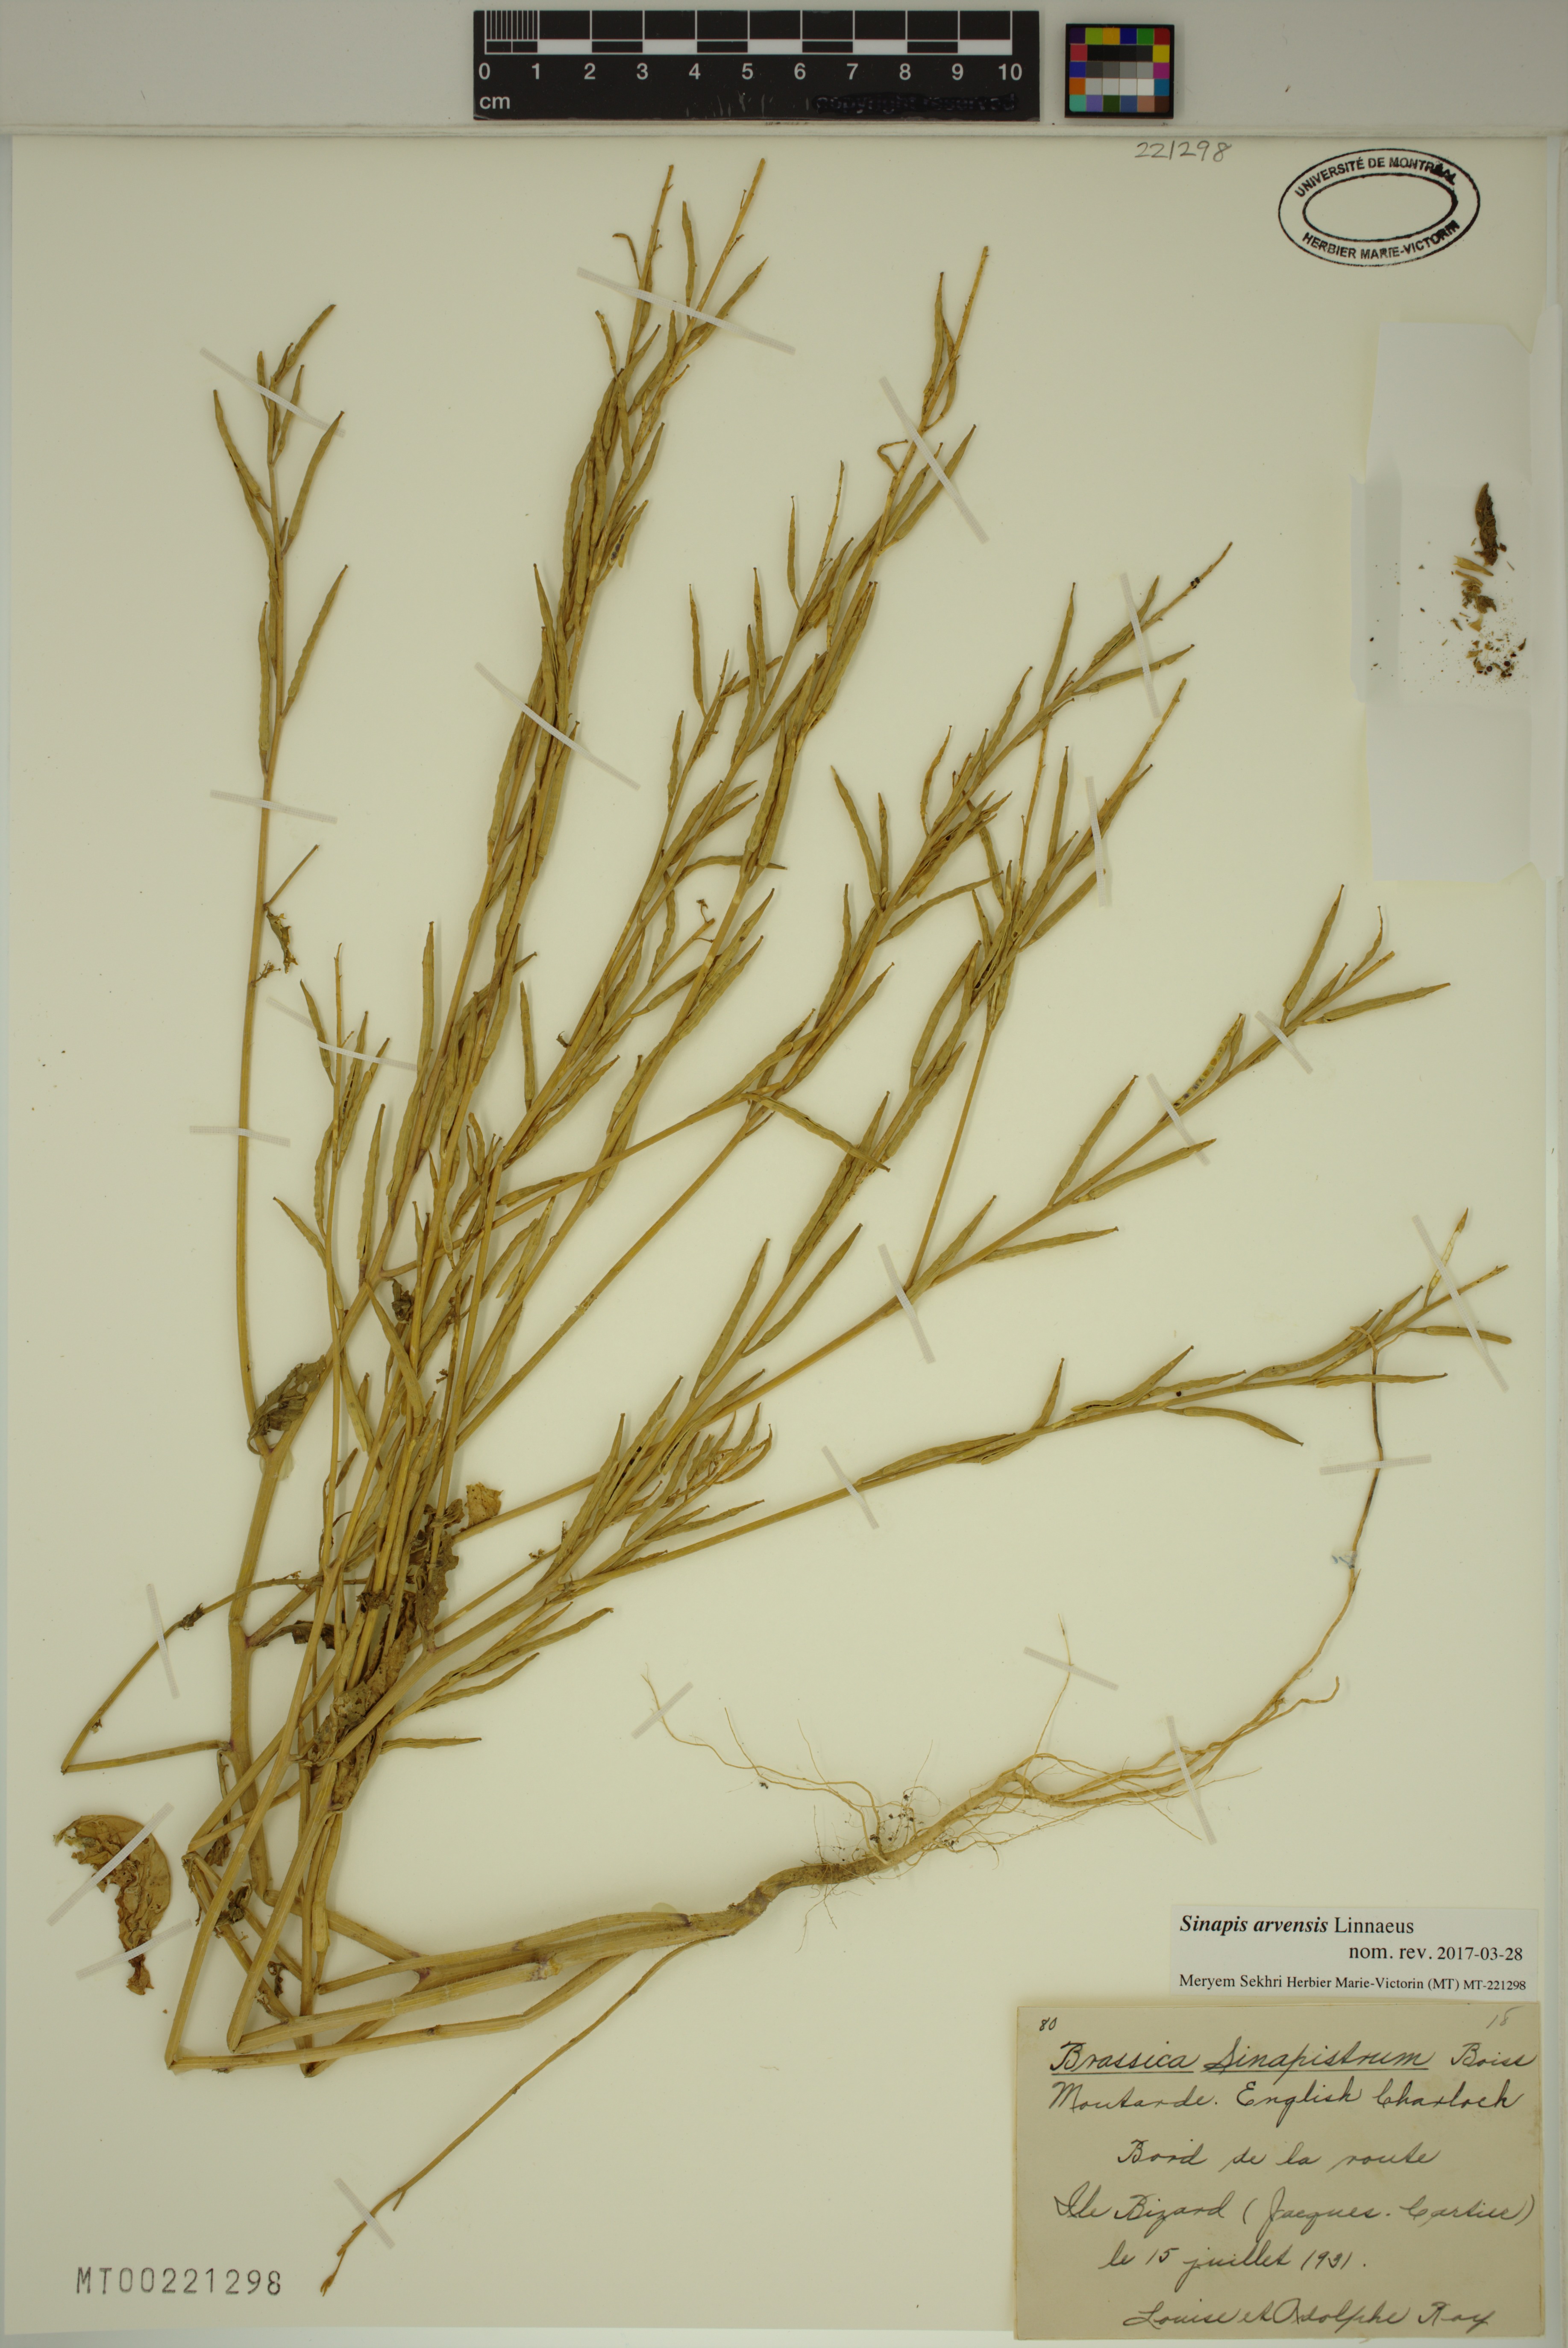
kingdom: Plantae
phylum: Tracheophyta
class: Magnoliopsida
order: Brassicales
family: Brassicaceae
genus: Sinapis
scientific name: Sinapis arvensis
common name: Charlock
